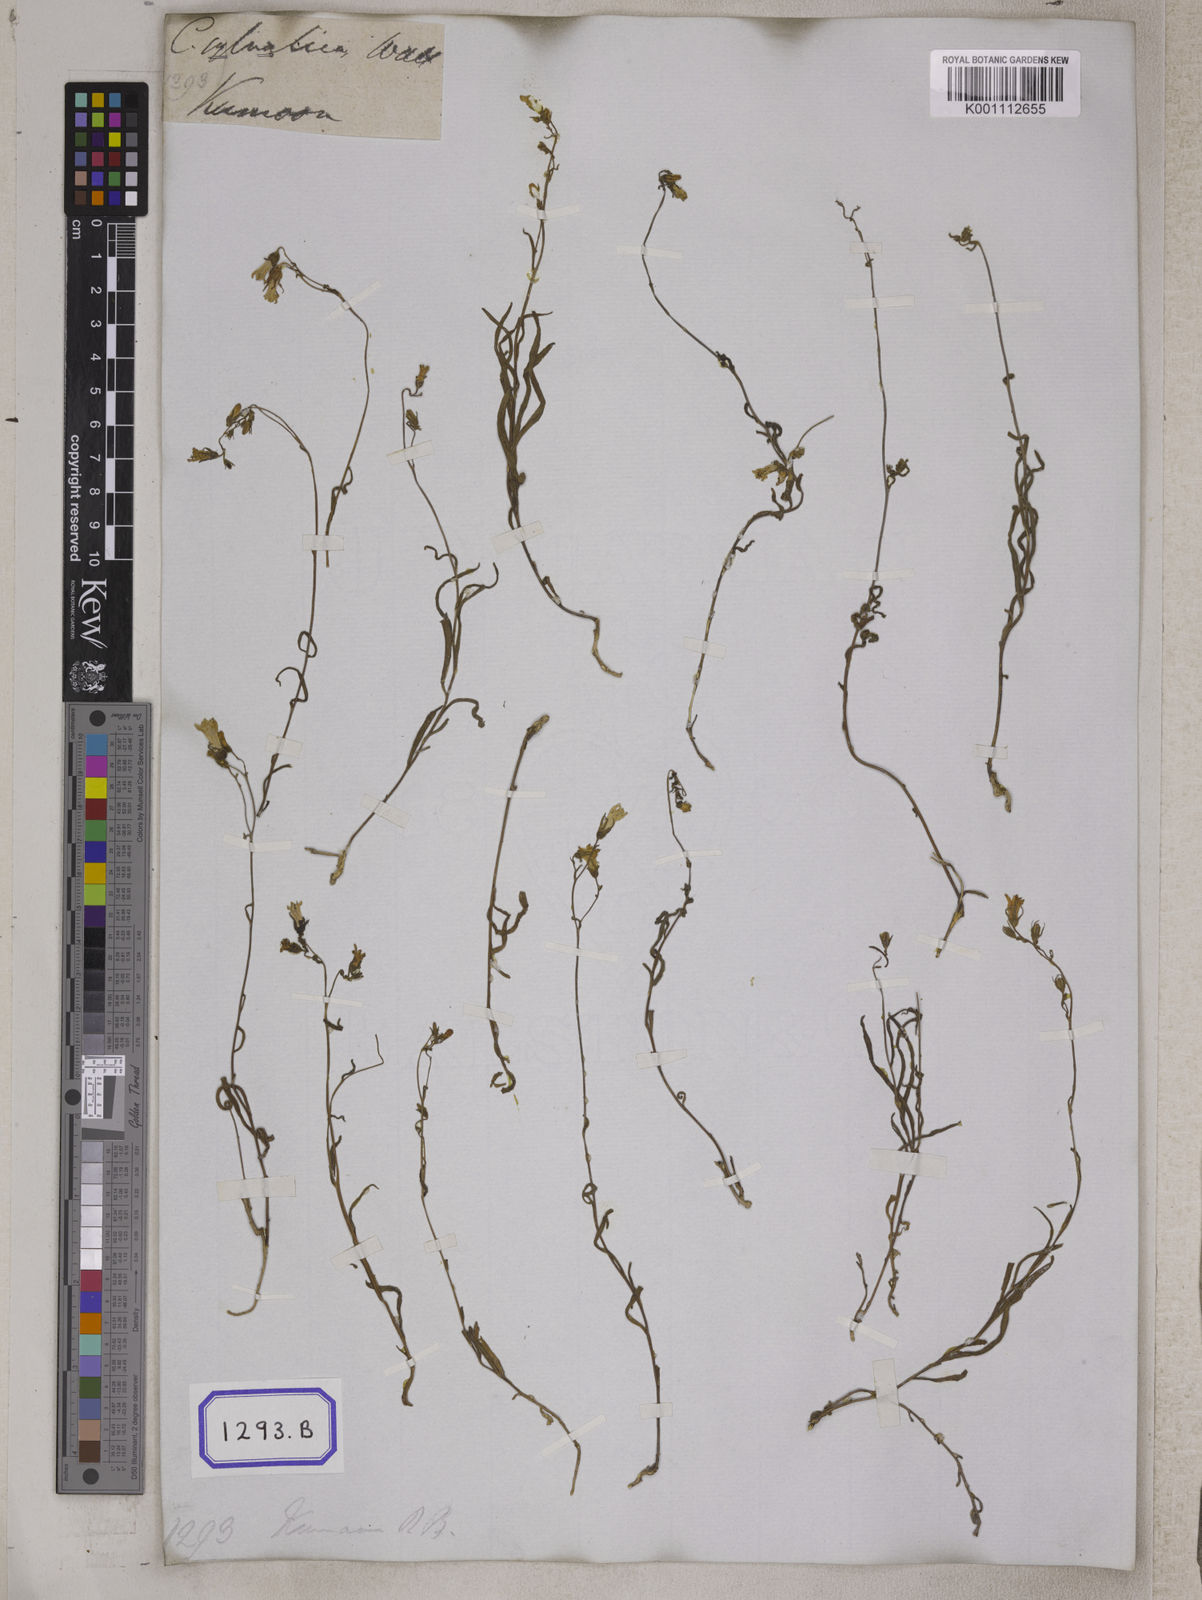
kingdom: Plantae
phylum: Tracheophyta
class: Magnoliopsida
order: Asterales
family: Campanulaceae
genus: Campanula
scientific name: Campanula sylvatica
